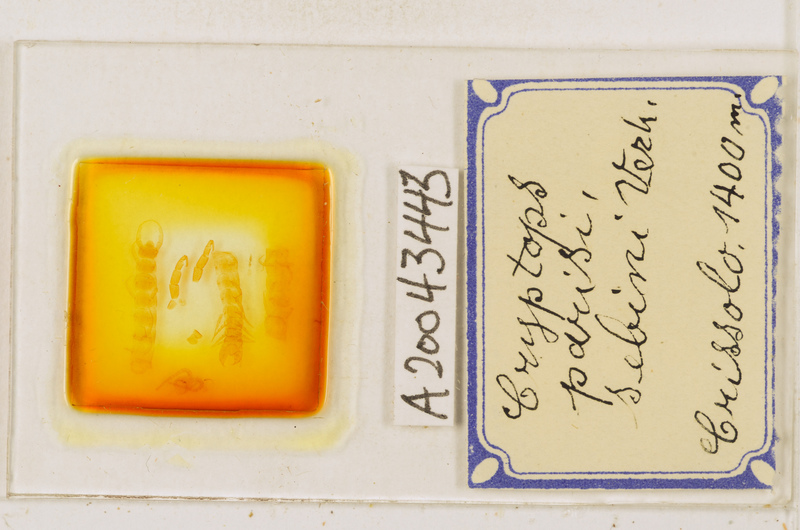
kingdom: Animalia
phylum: Arthropoda
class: Chilopoda
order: Scolopendromorpha
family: Cryptopidae
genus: Cryptops
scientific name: Cryptops parisi
